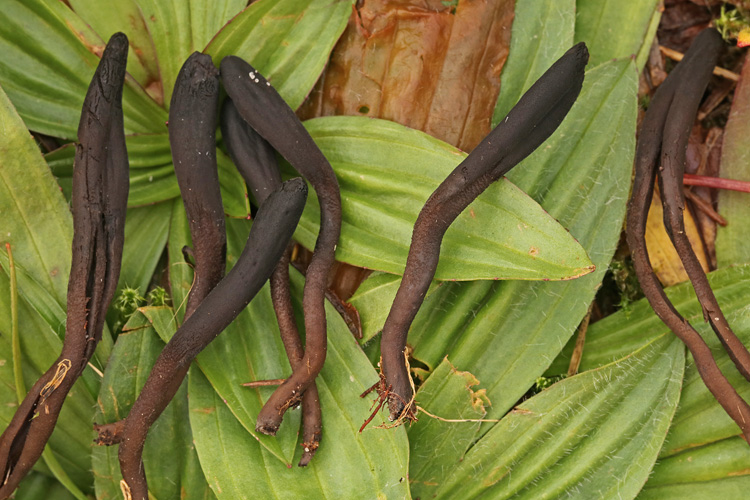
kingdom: Fungi
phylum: Ascomycota
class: Geoglossomycetes
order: Geoglossales
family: Geoglossaceae
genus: Hemileucoglossum
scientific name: Hemileucoglossum elongatum
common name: småsporet jordtunge
